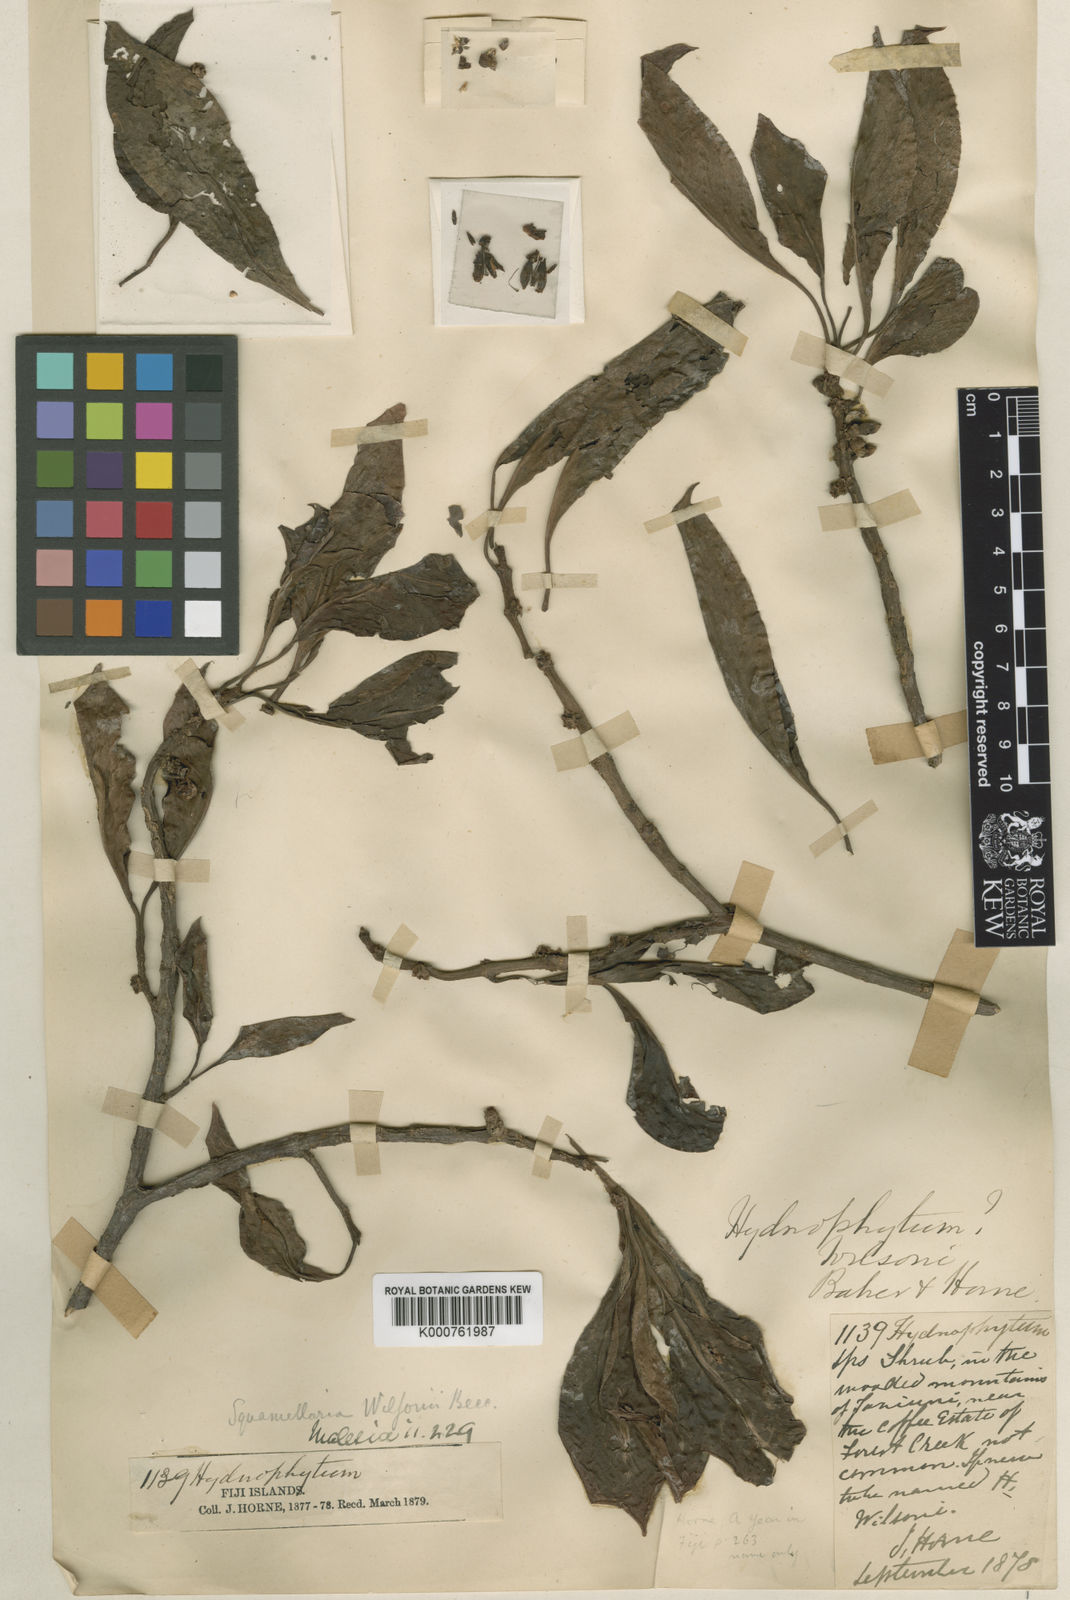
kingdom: Plantae
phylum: Tracheophyta
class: Magnoliopsida
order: Gentianales
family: Rubiaceae
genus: Squamellaria
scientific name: Squamellaria imberbis
